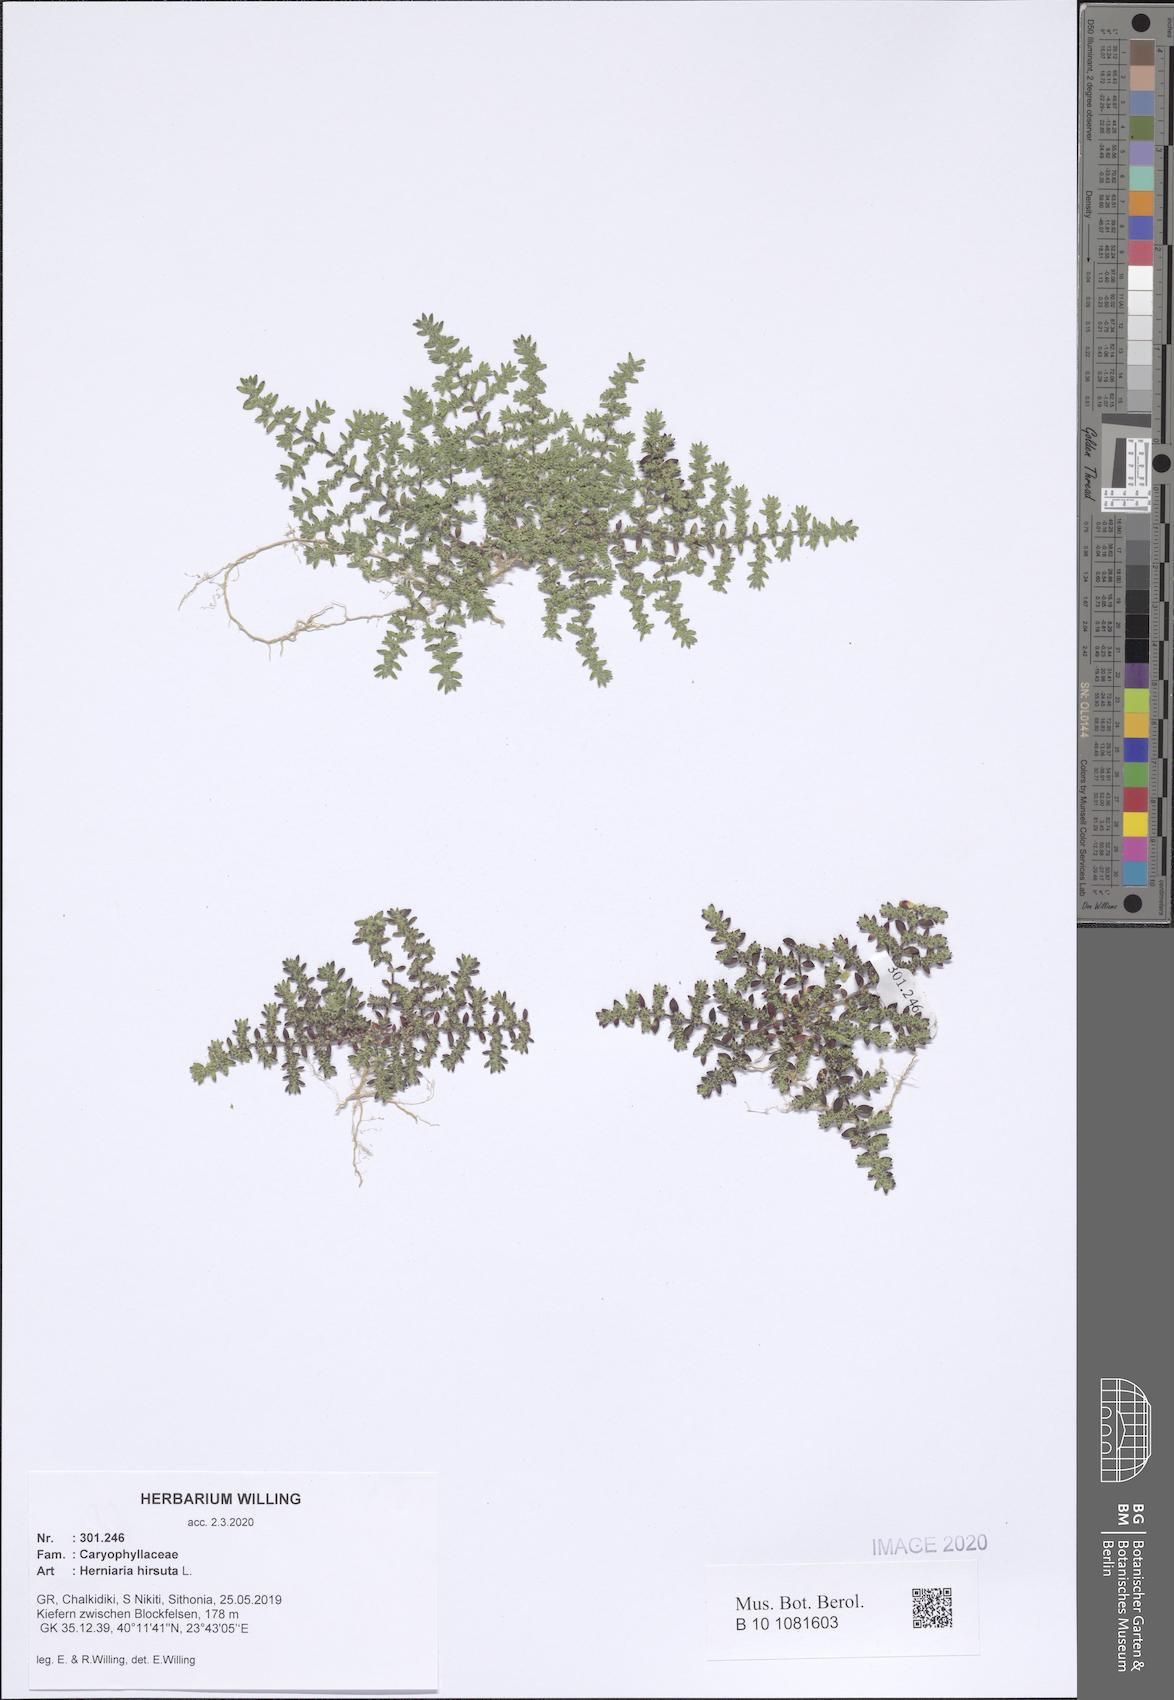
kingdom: Plantae
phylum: Tracheophyta
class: Magnoliopsida
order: Caryophyllales
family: Caryophyllaceae
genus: Herniaria
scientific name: Herniaria hirsuta
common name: Hairy rupturewort
